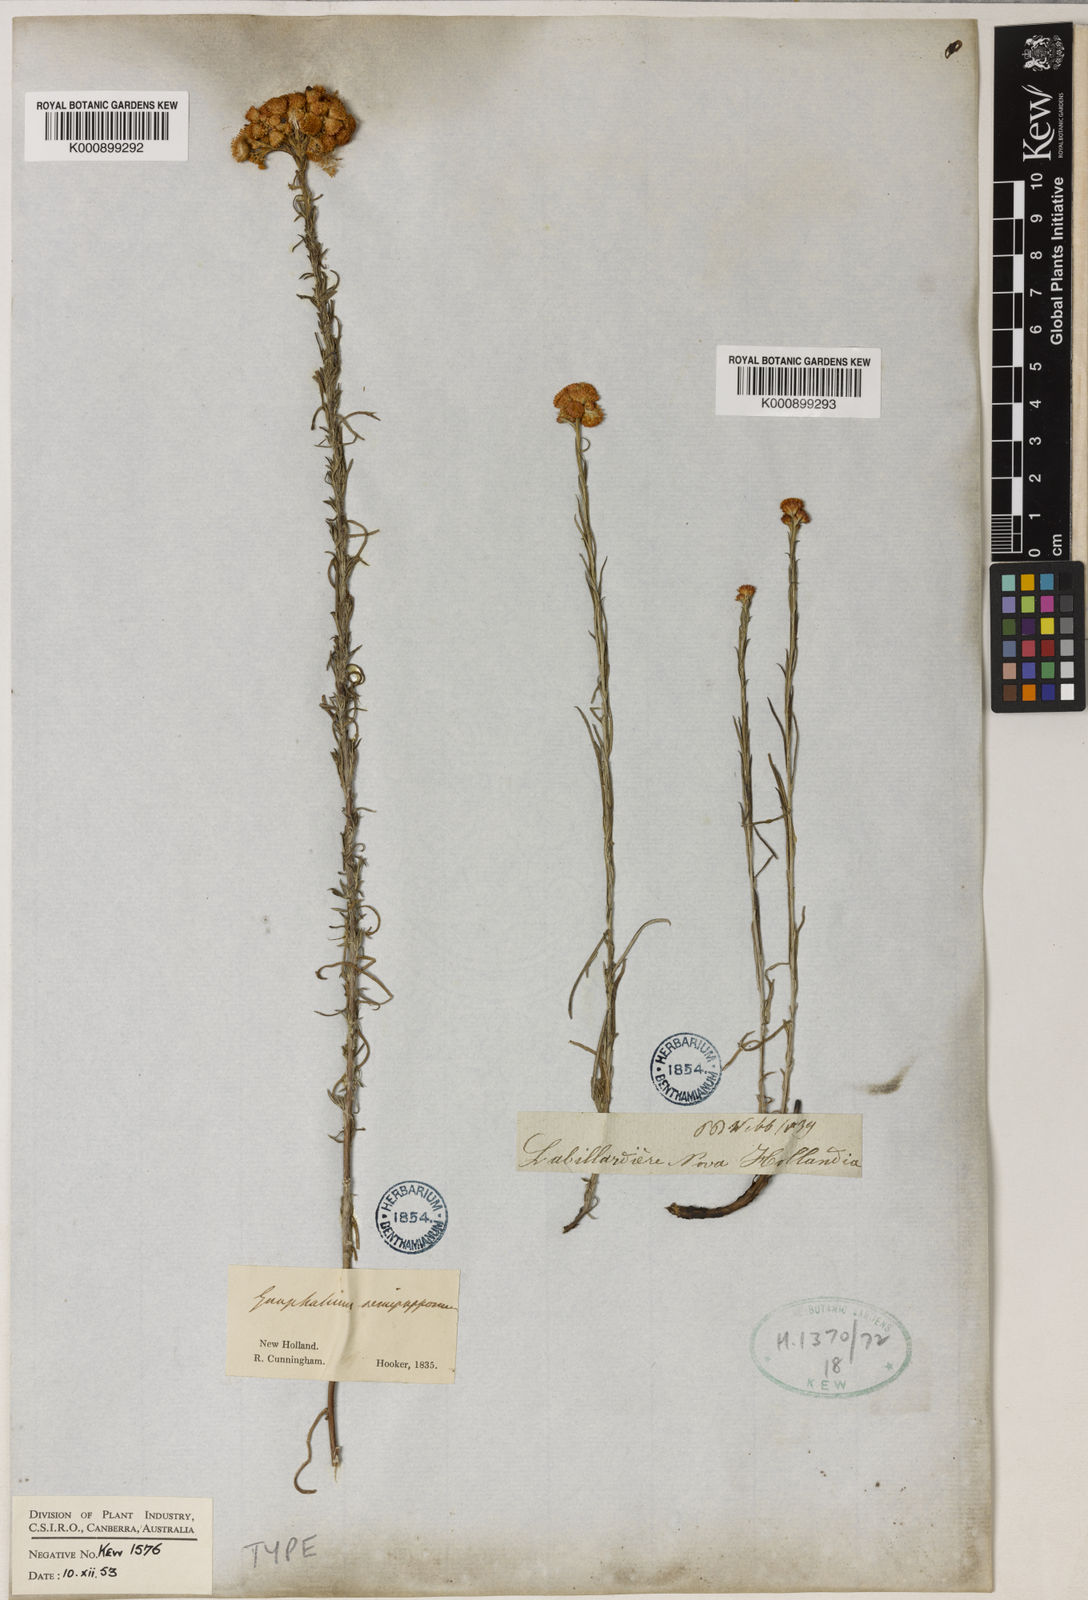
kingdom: Plantae
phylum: Tracheophyta
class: Magnoliopsida
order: Asterales
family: Asteraceae
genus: Chrysocephalum
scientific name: Chrysocephalum semipapposum
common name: Clustered everlasting
